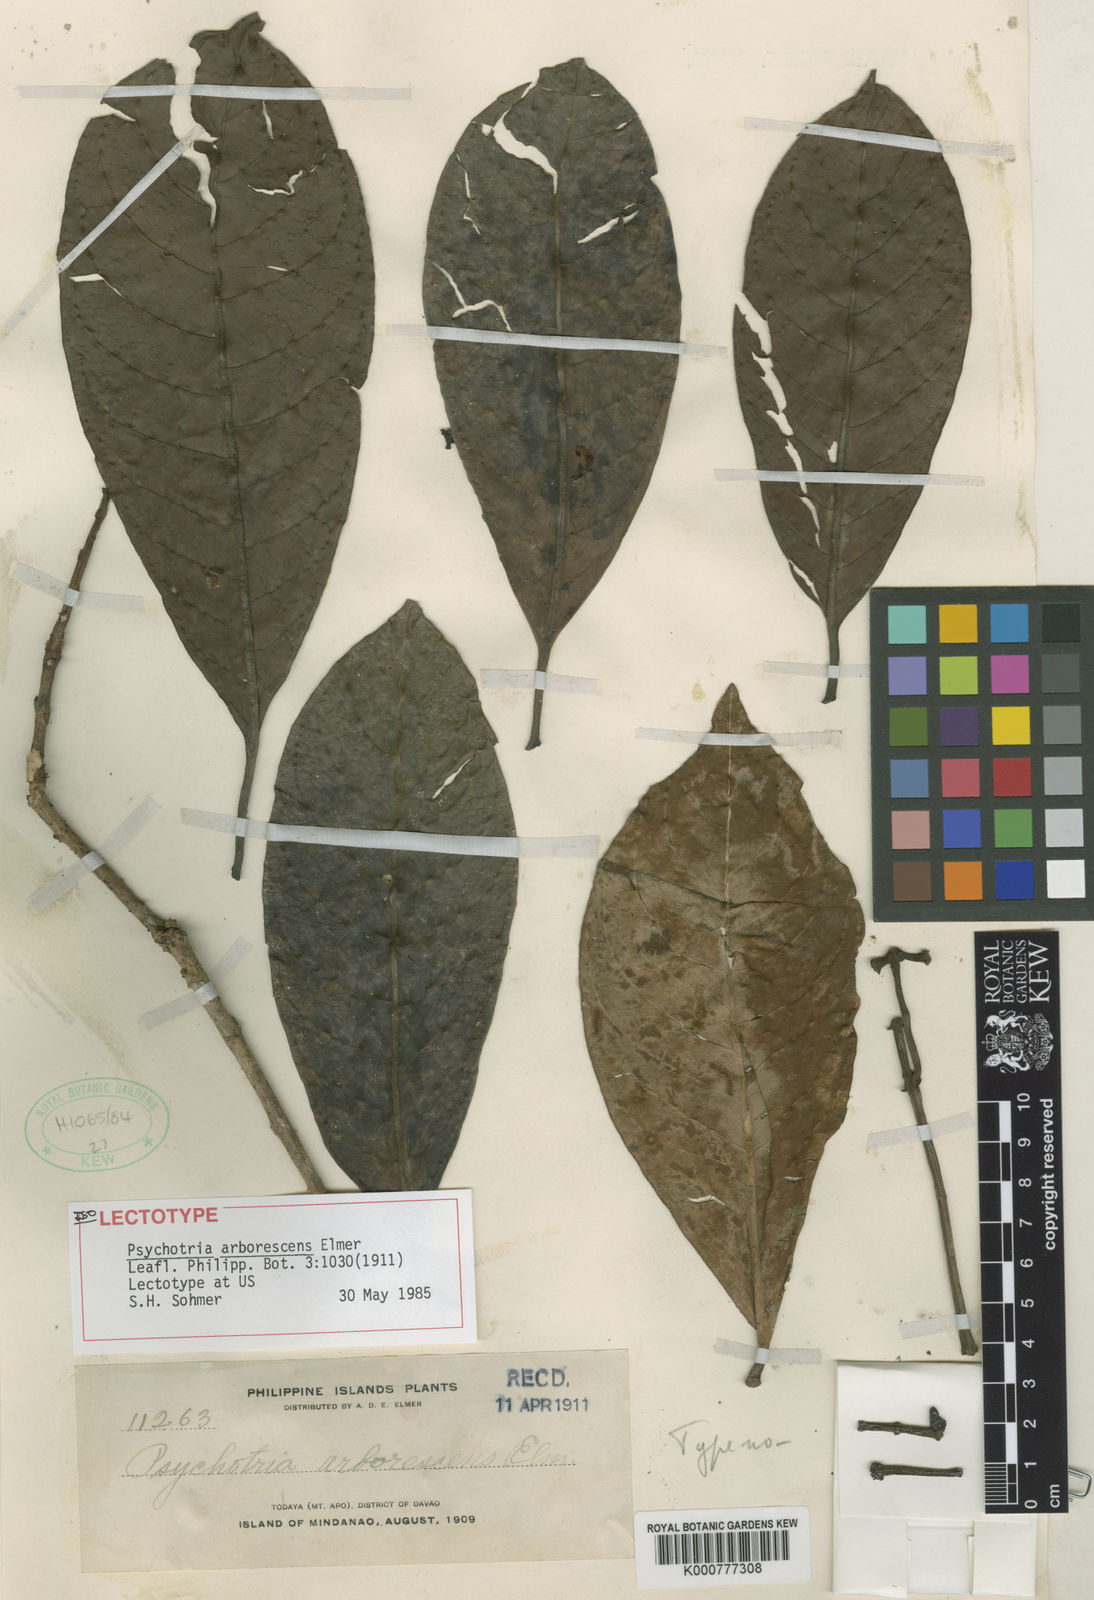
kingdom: Plantae
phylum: Tracheophyta
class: Magnoliopsida
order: Gentianales
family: Rubiaceae
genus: Psychotria
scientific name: Psychotria arborescens
